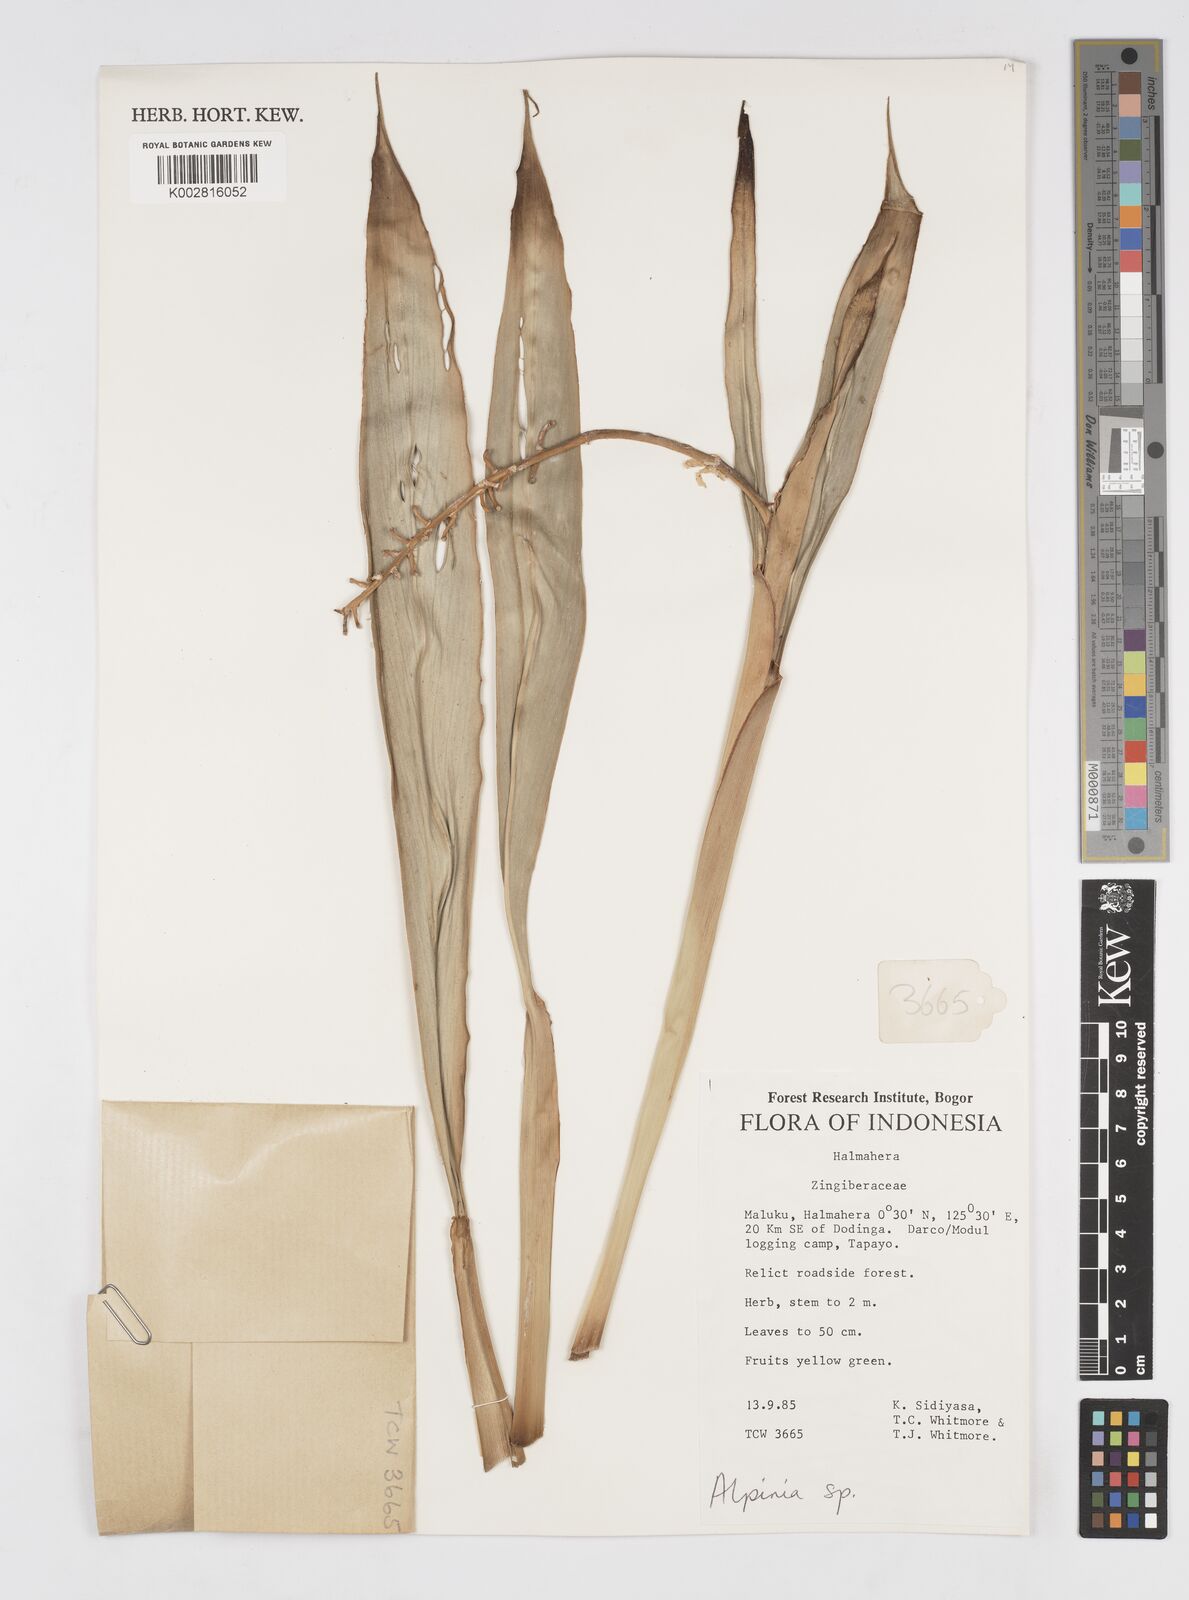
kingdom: Plantae
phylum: Tracheophyta
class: Liliopsida
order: Zingiberales
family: Zingiberaceae
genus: Alpinia
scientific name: Alpinia
